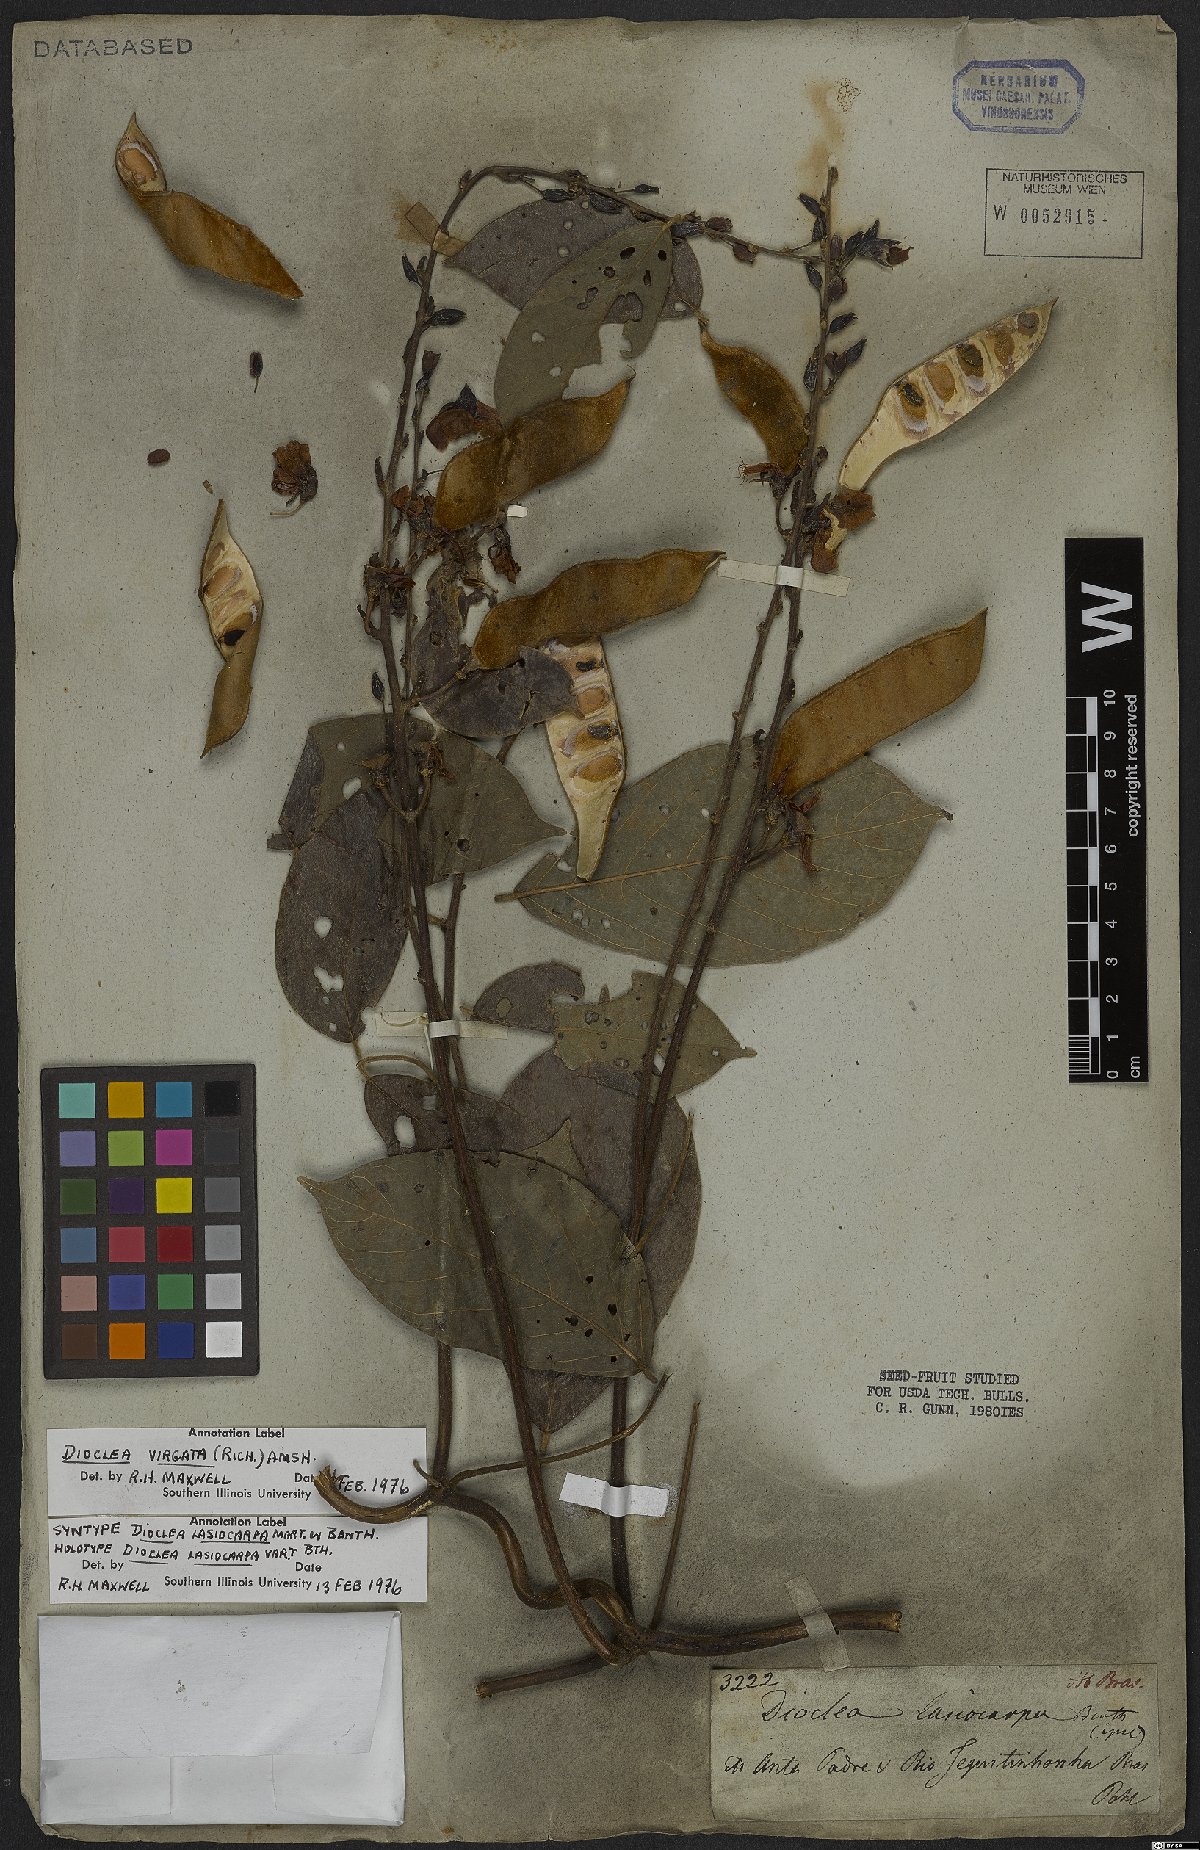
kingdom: Plantae
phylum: Tracheophyta
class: Magnoliopsida
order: Fabales
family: Fabaceae
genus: Dioclea
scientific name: Dioclea virgata
